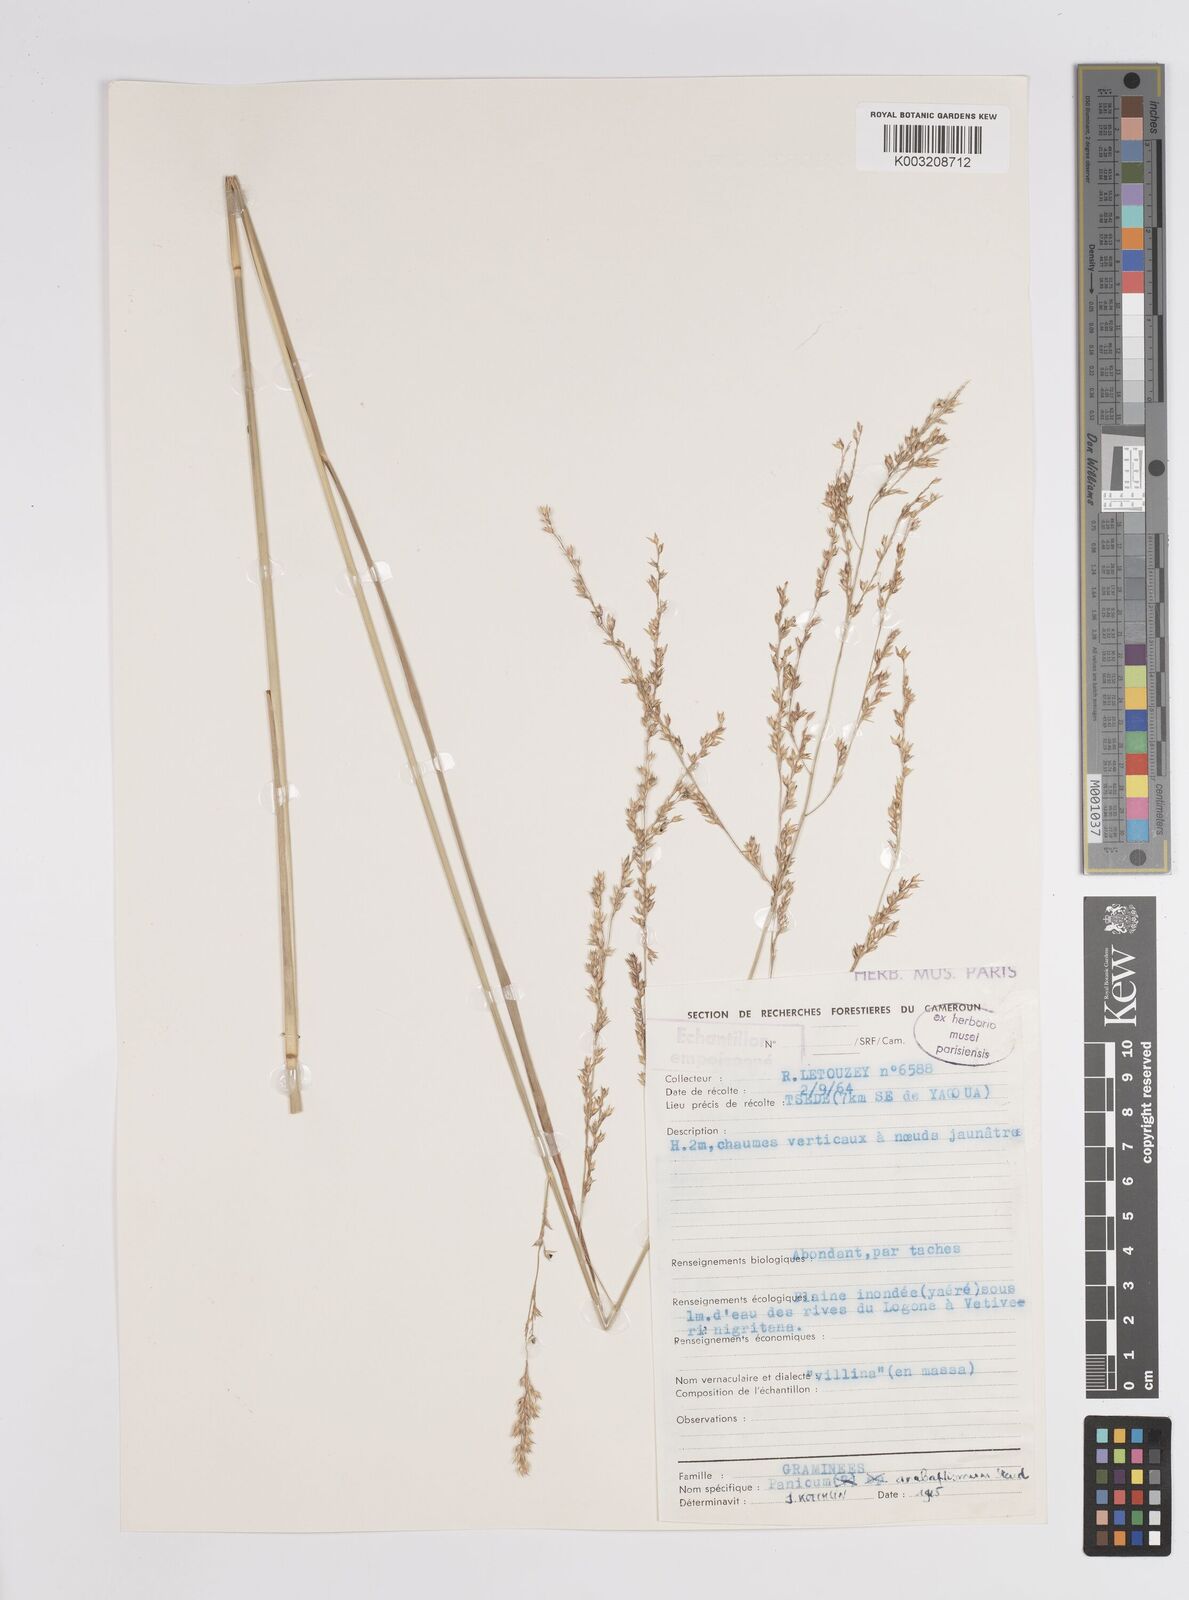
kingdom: Plantae
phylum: Tracheophyta
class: Liliopsida
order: Poales
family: Poaceae
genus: Panicum
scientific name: Panicum anabaptistum
